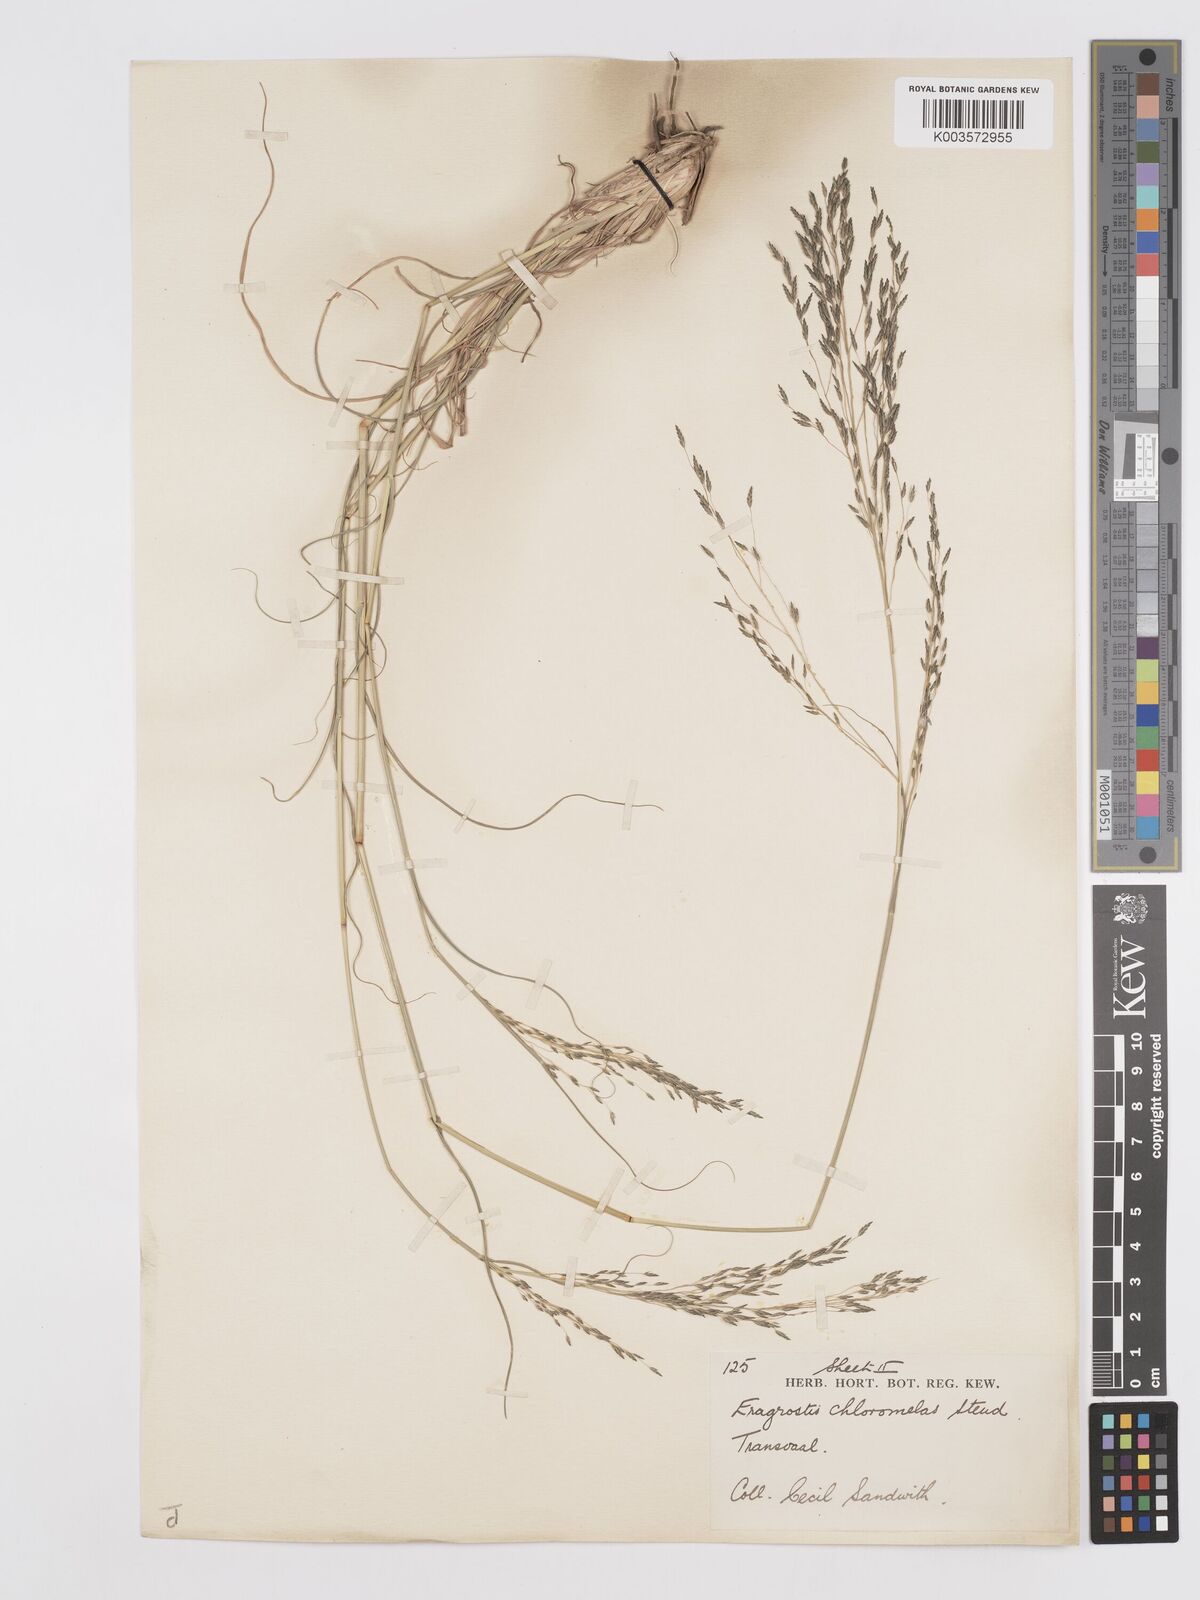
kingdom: Plantae
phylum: Tracheophyta
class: Liliopsida
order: Poales
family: Poaceae
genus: Eragrostis
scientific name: Eragrostis curvula
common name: African love-grass
